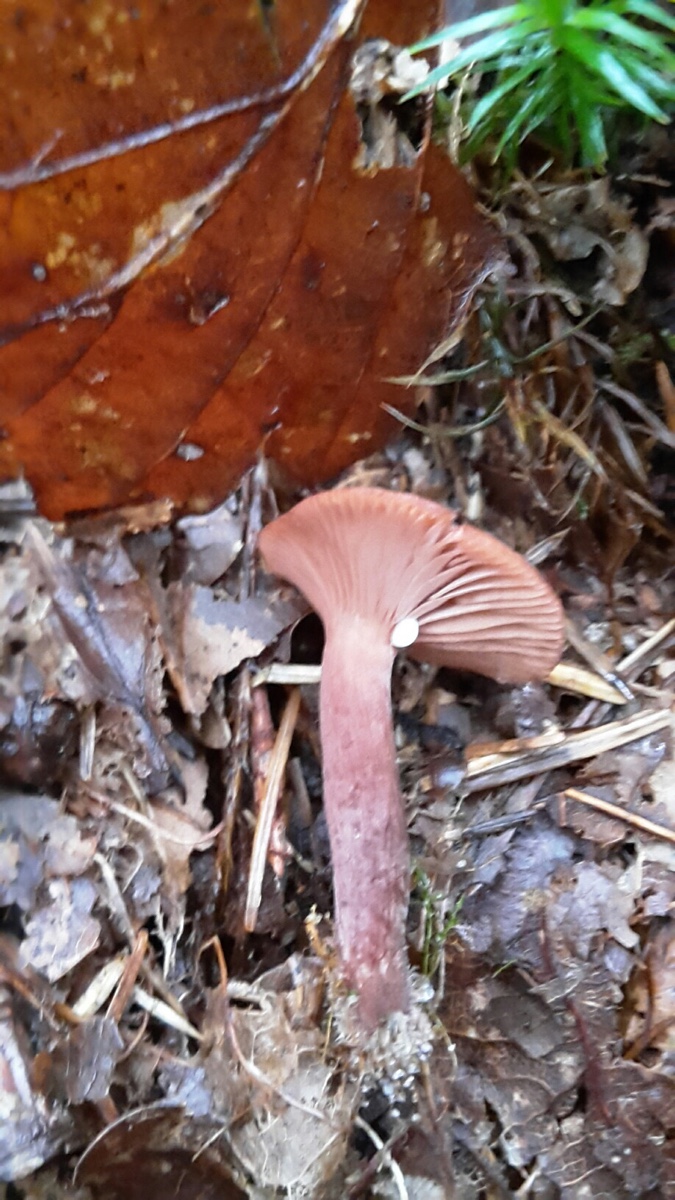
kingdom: Fungi
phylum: Basidiomycota
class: Agaricomycetes
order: Russulales
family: Russulaceae
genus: Lactarius
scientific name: Lactarius camphoratus
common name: kamfer-mælkehat
